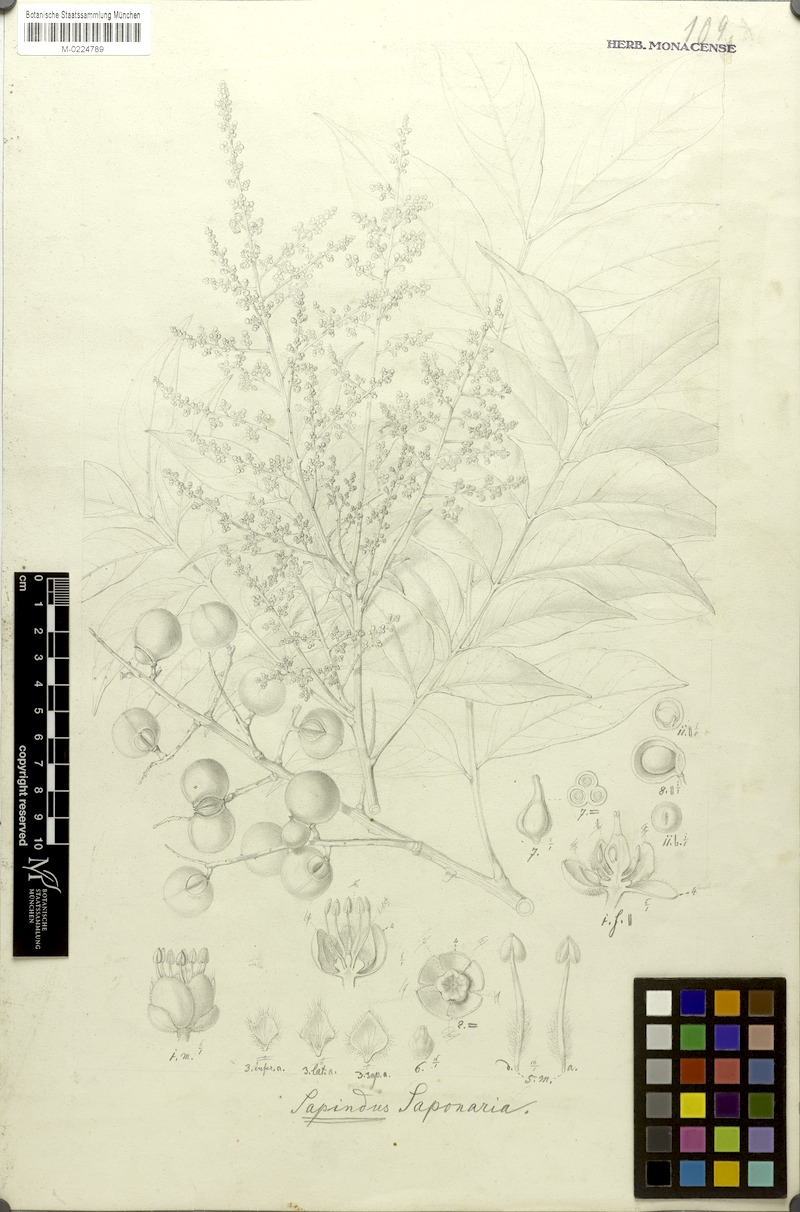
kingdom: Plantae
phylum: Tracheophyta
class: Magnoliopsida
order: Sapindales
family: Sapindaceae
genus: Sapindus
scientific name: Sapindus saponaria
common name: Wingleaf soapberry
